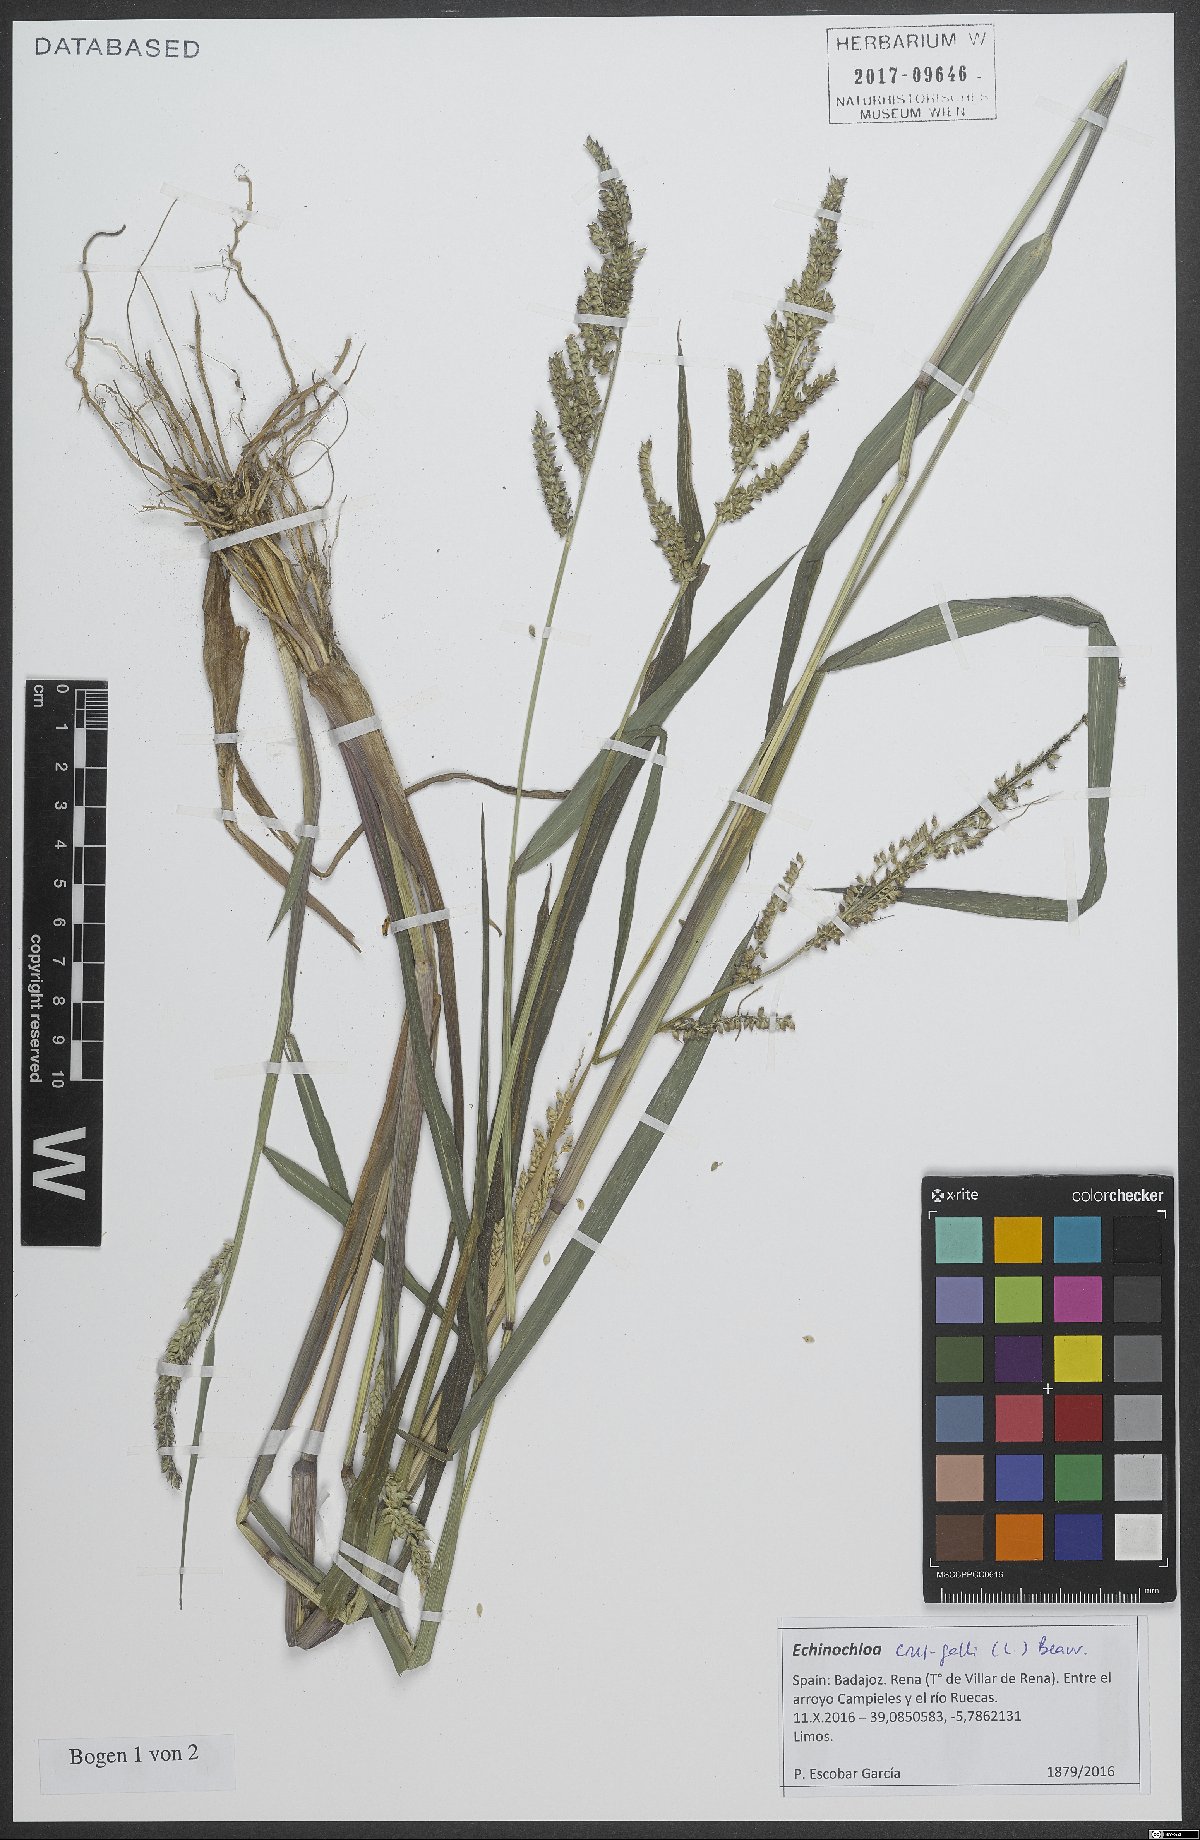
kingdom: Plantae
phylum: Tracheophyta
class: Liliopsida
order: Poales
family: Poaceae
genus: Echinochloa
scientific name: Echinochloa crus-galli
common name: Cockspur
